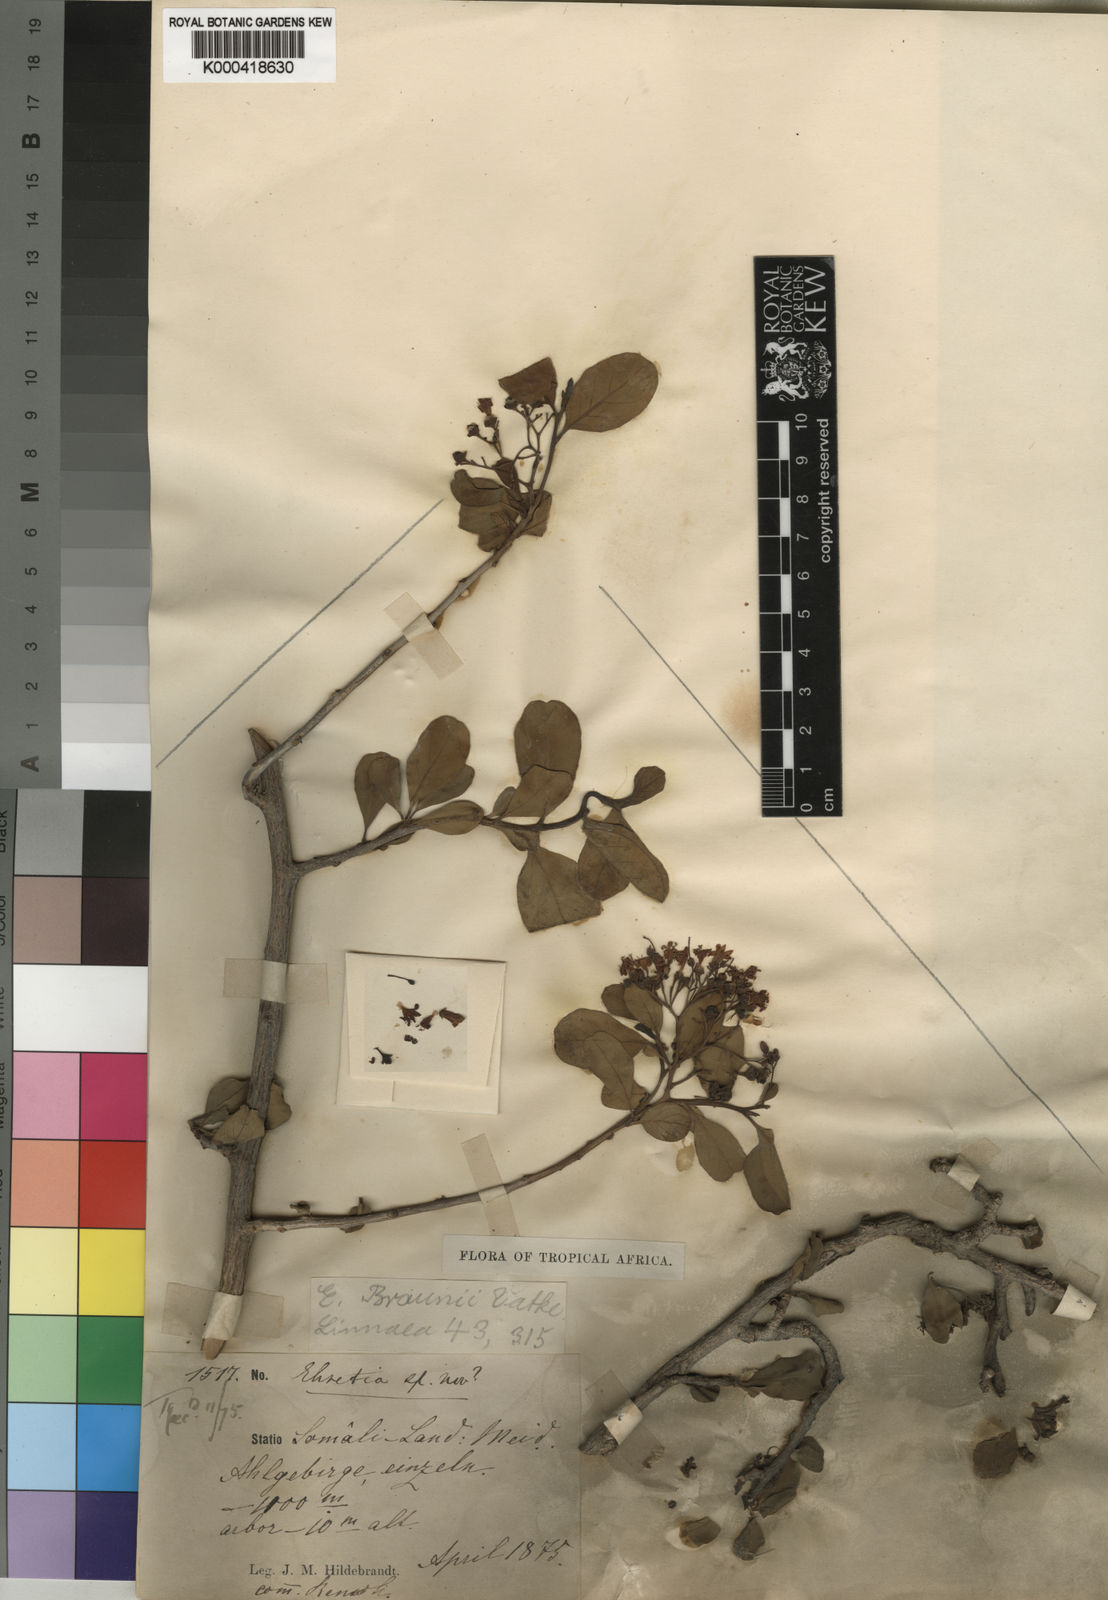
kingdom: Plantae
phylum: Tracheophyta
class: Magnoliopsida
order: Boraginales
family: Ehretiaceae
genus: Ehretia
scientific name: Ehretia obtusifolia
